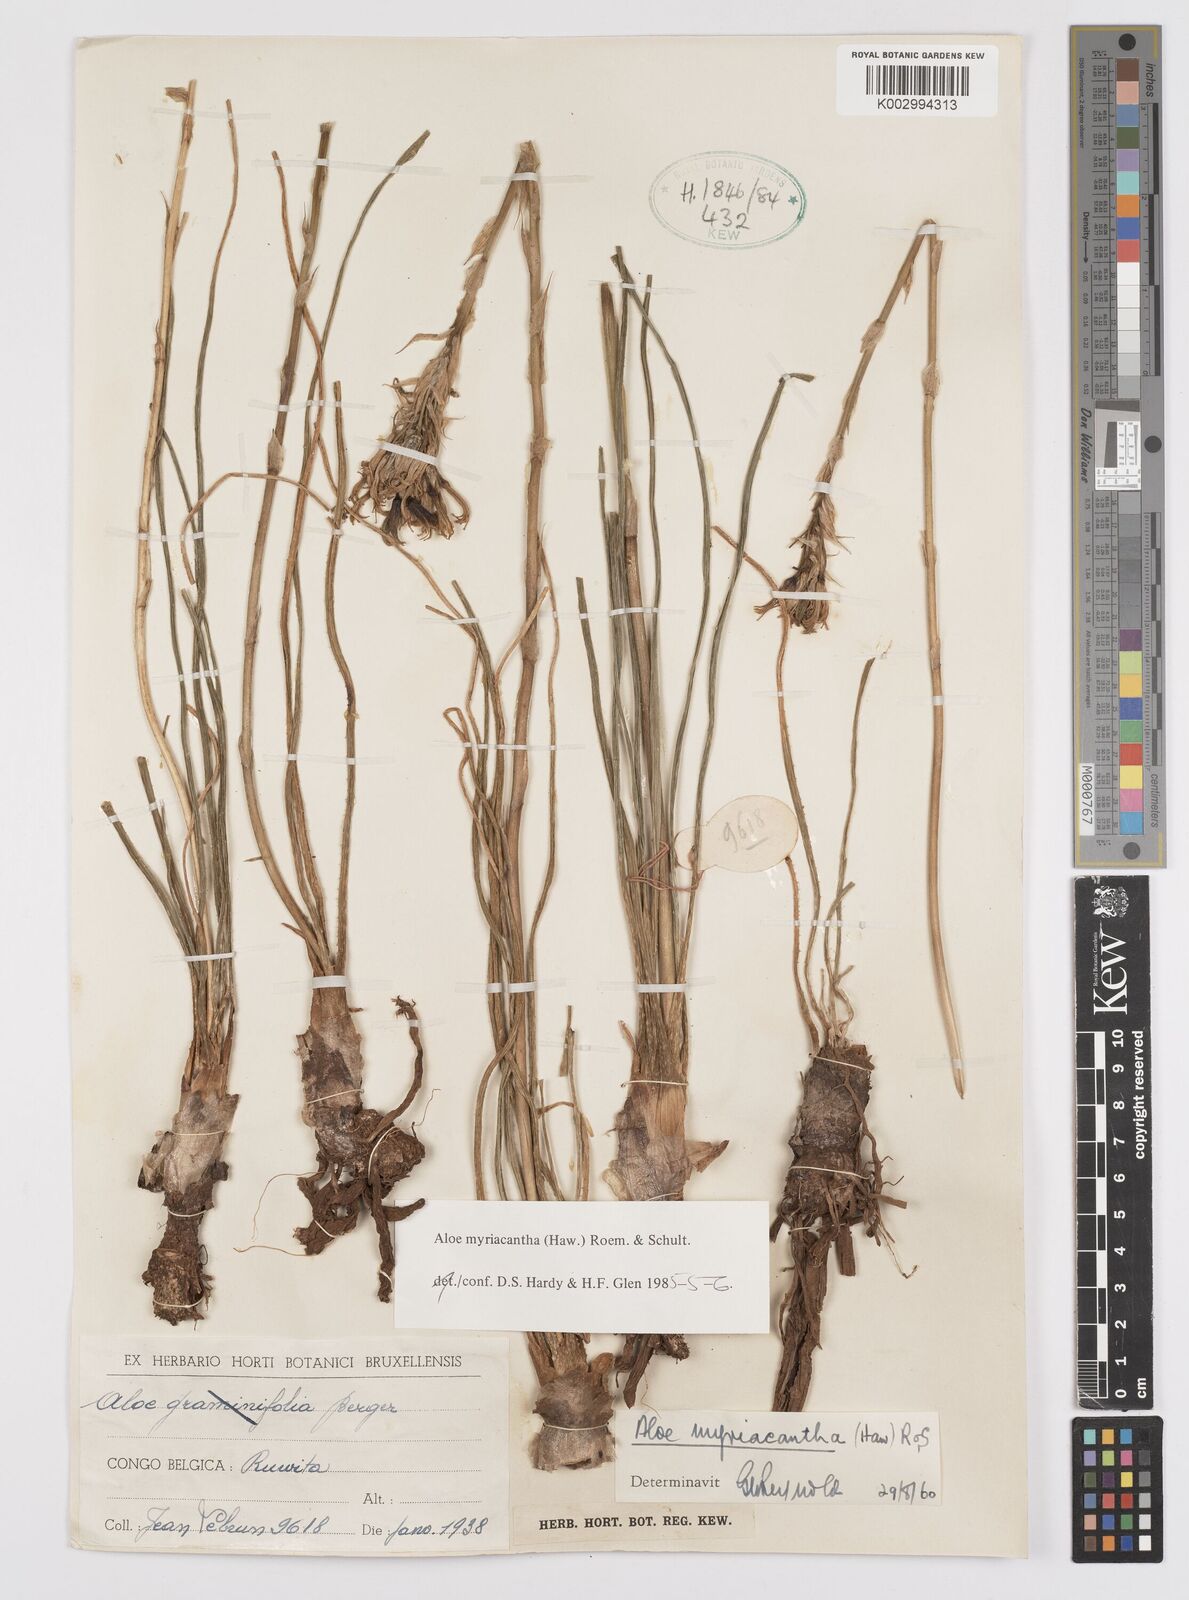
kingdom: Plantae
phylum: Tracheophyta
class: Liliopsida
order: Asparagales
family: Asphodelaceae
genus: Aloe
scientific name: Aloe myriacantha
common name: Grass aloe
